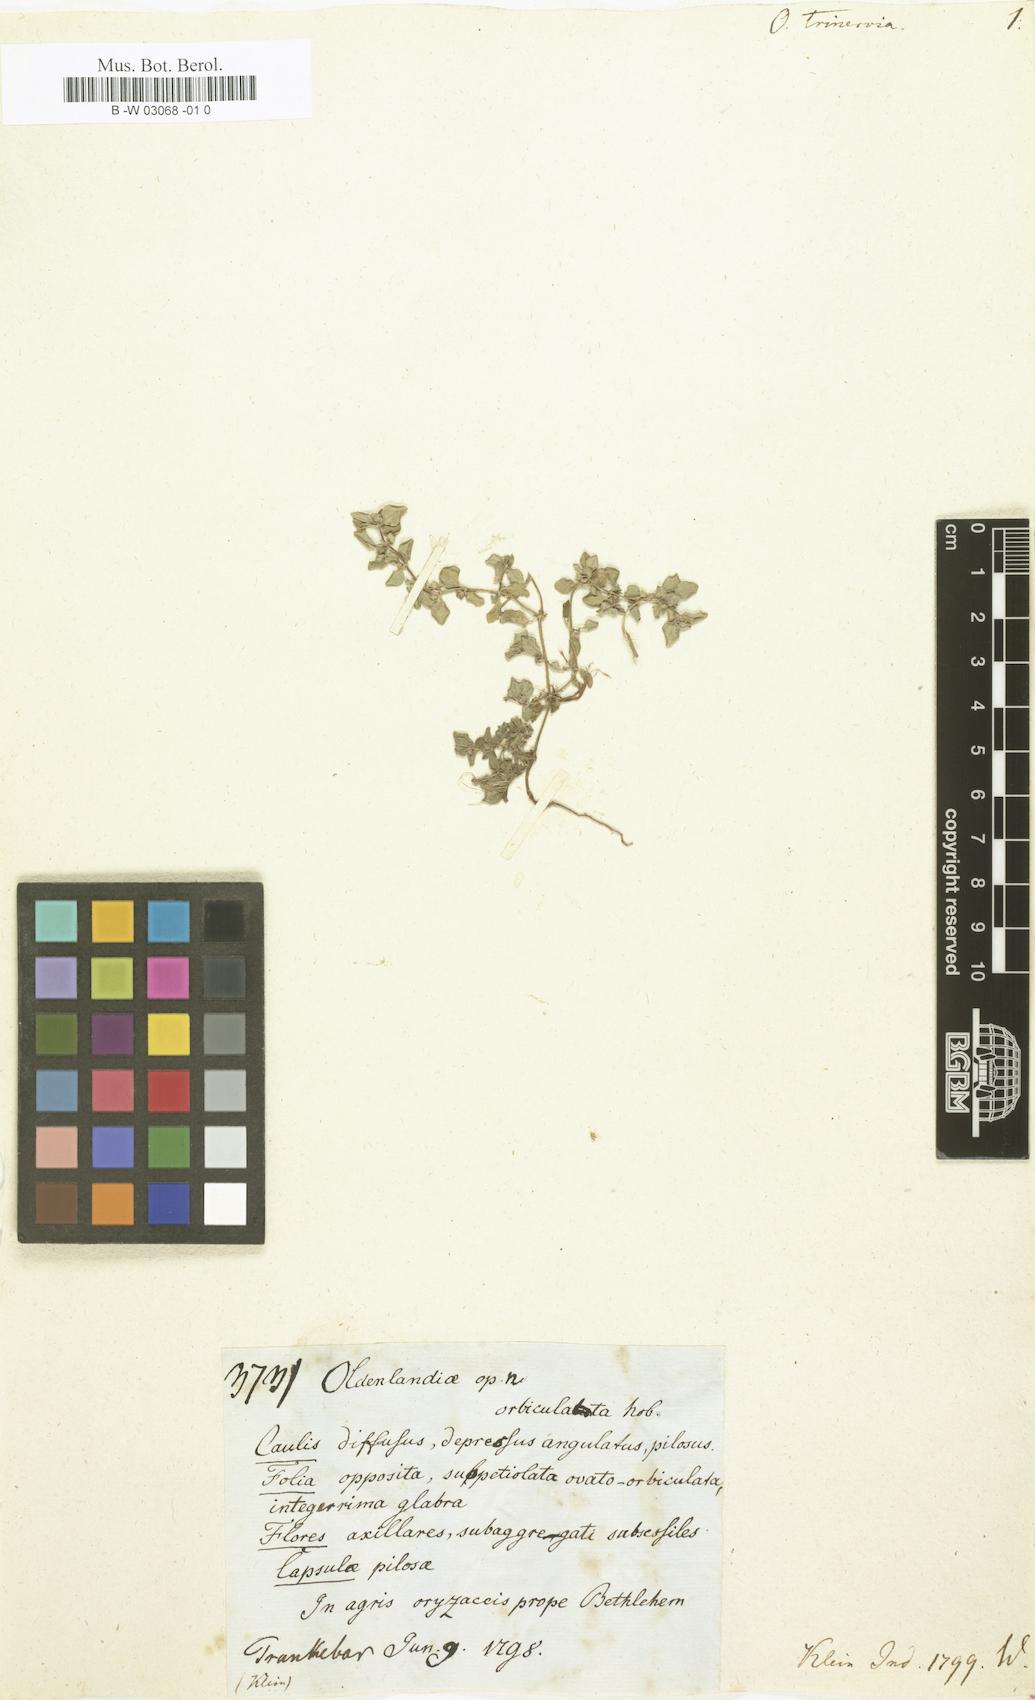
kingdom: Plantae
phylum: Tracheophyta
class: Magnoliopsida
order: Gentianales
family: Rubiaceae
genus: Edrastima
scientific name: Edrastima
